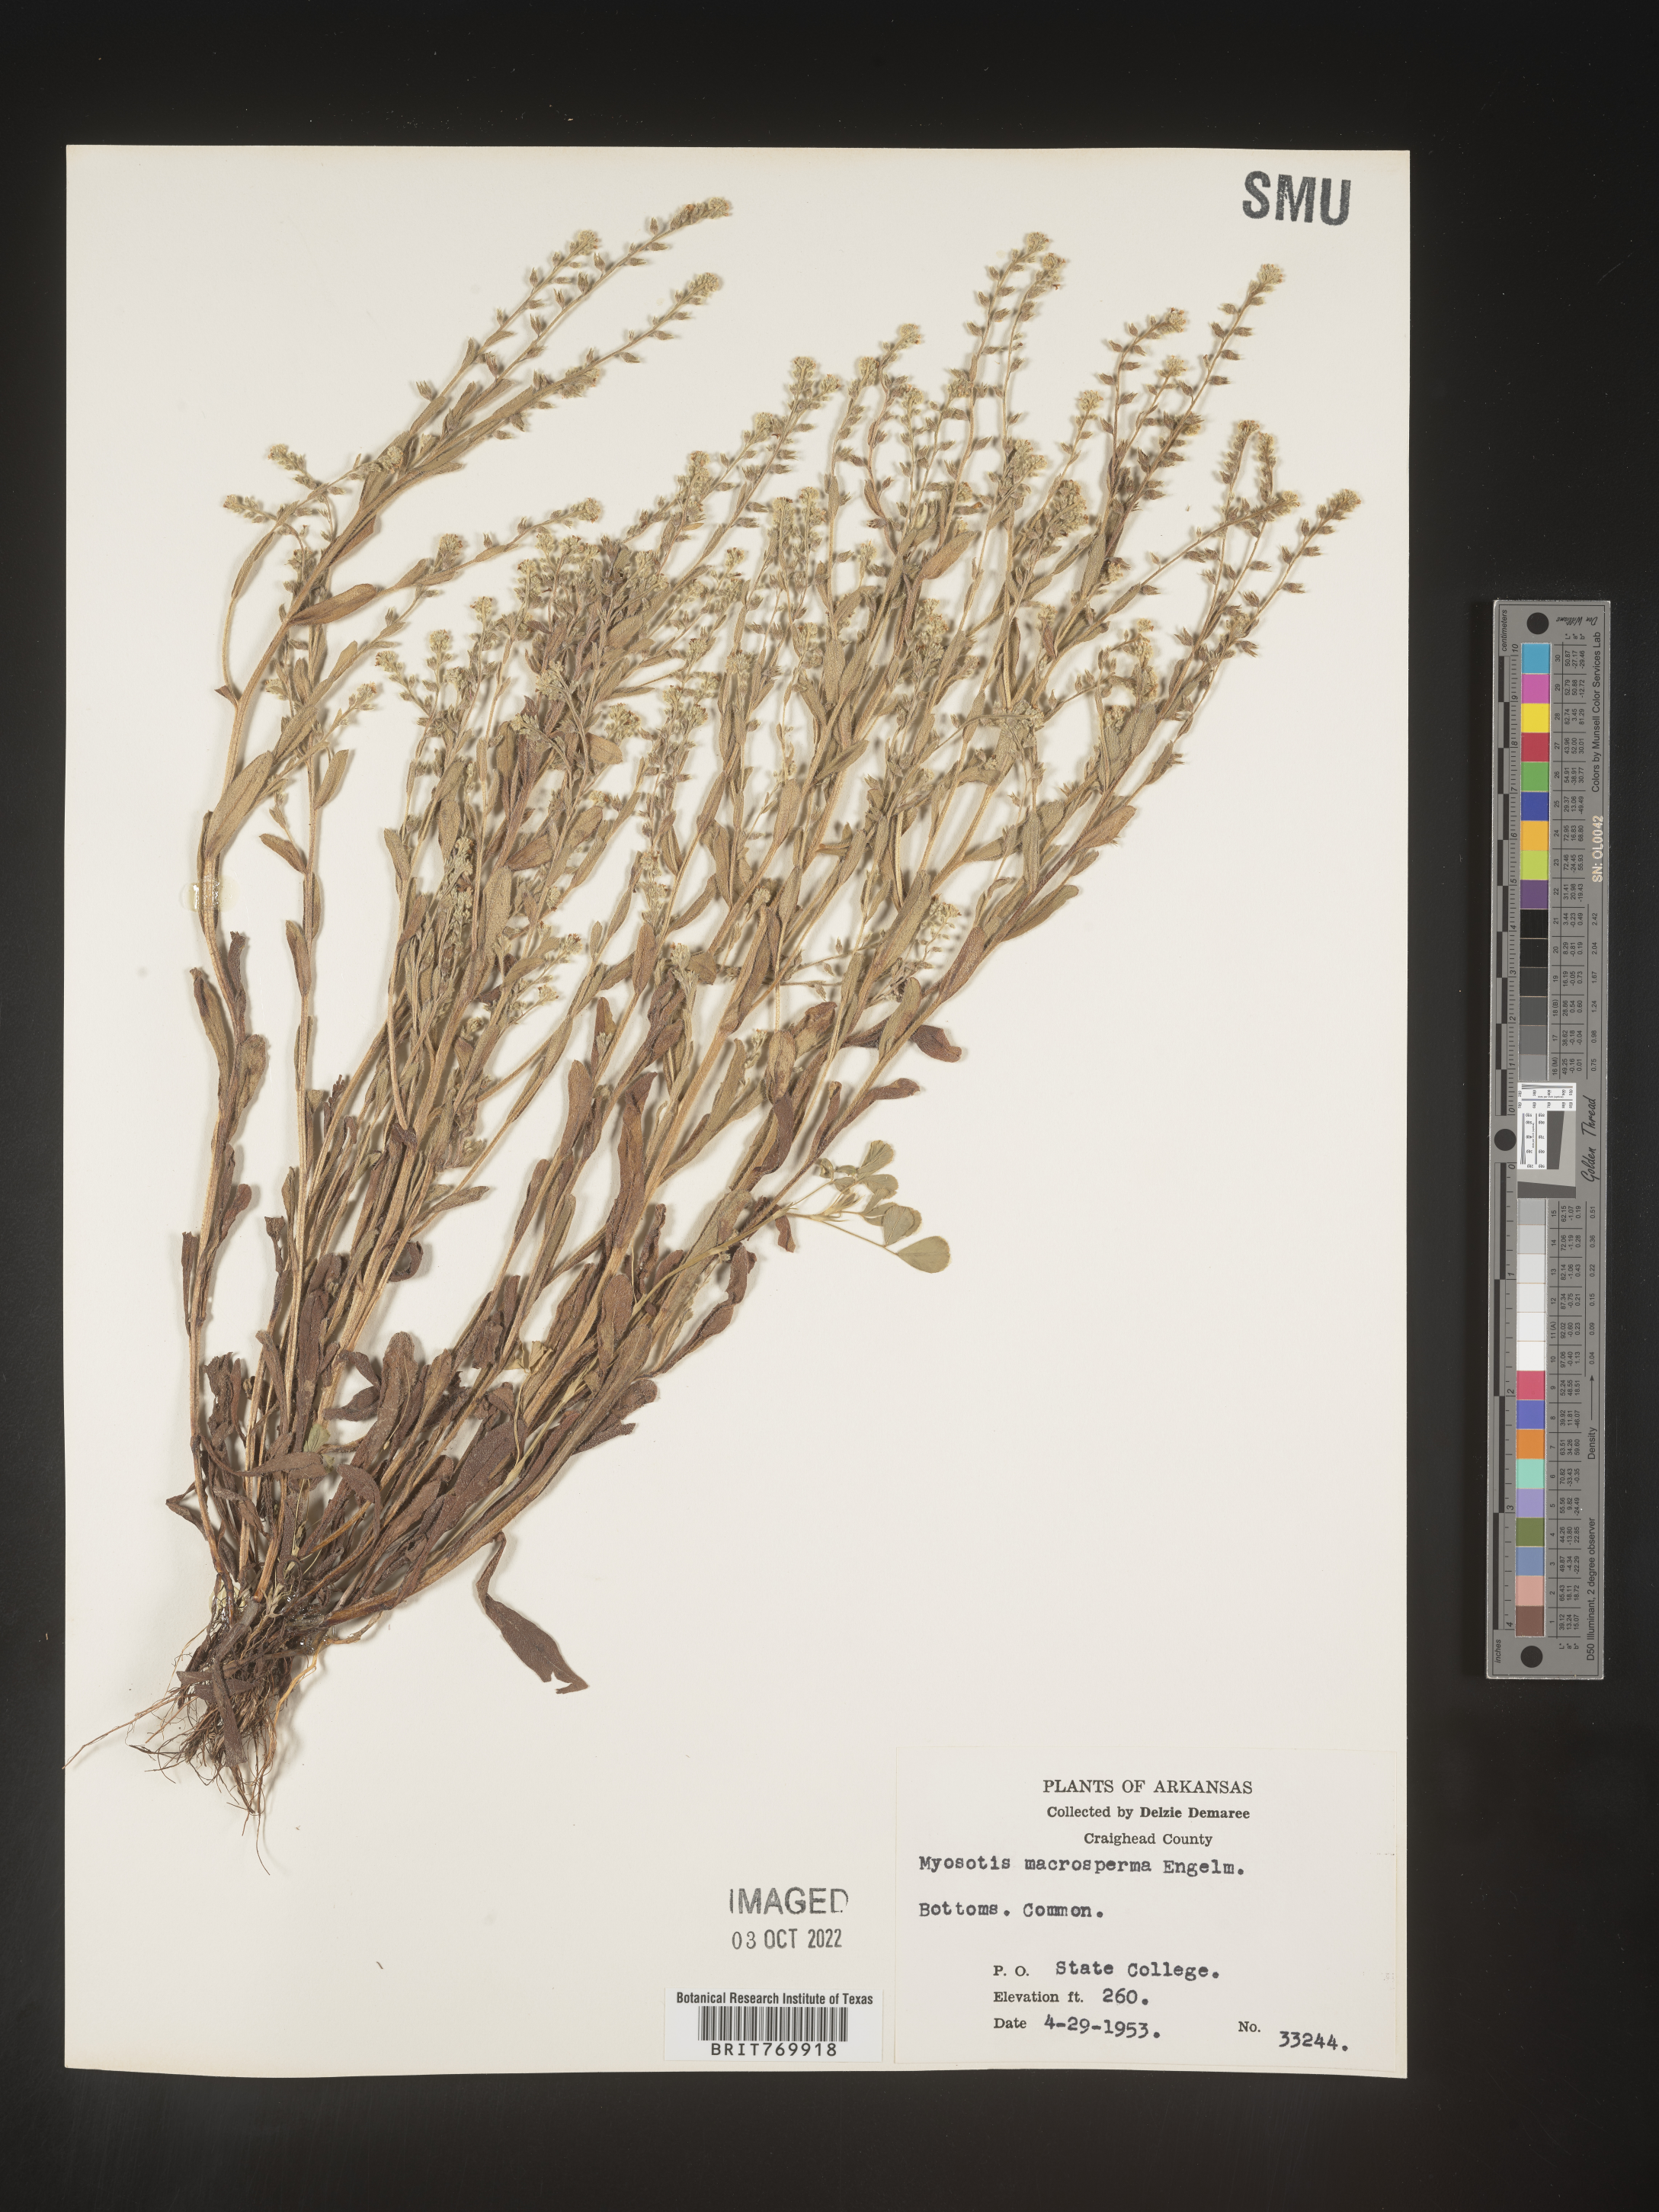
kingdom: Plantae
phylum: Tracheophyta
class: Magnoliopsida
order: Boraginales
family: Boraginaceae
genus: Myosotis
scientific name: Myosotis verna
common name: Early forget-me-not
